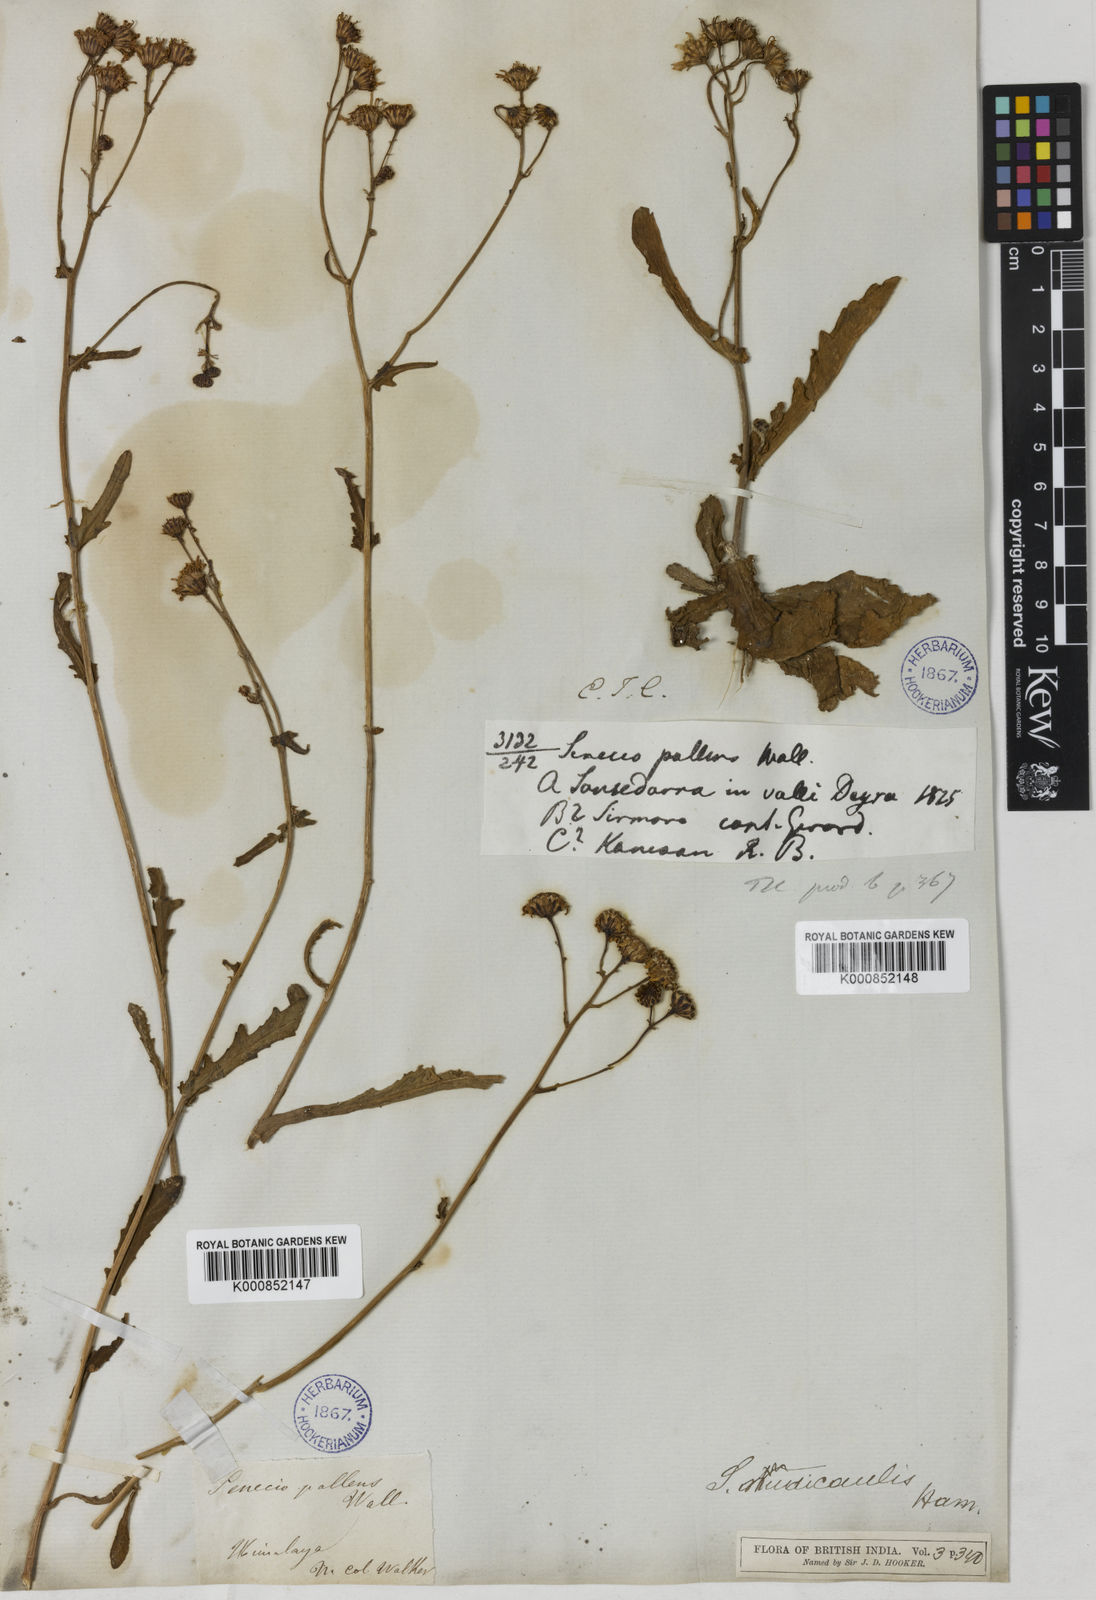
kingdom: Plantae
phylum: Tracheophyta
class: Magnoliopsida
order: Asterales
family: Asteraceae
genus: Jacobaea
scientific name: Jacobaea nudicaulis
